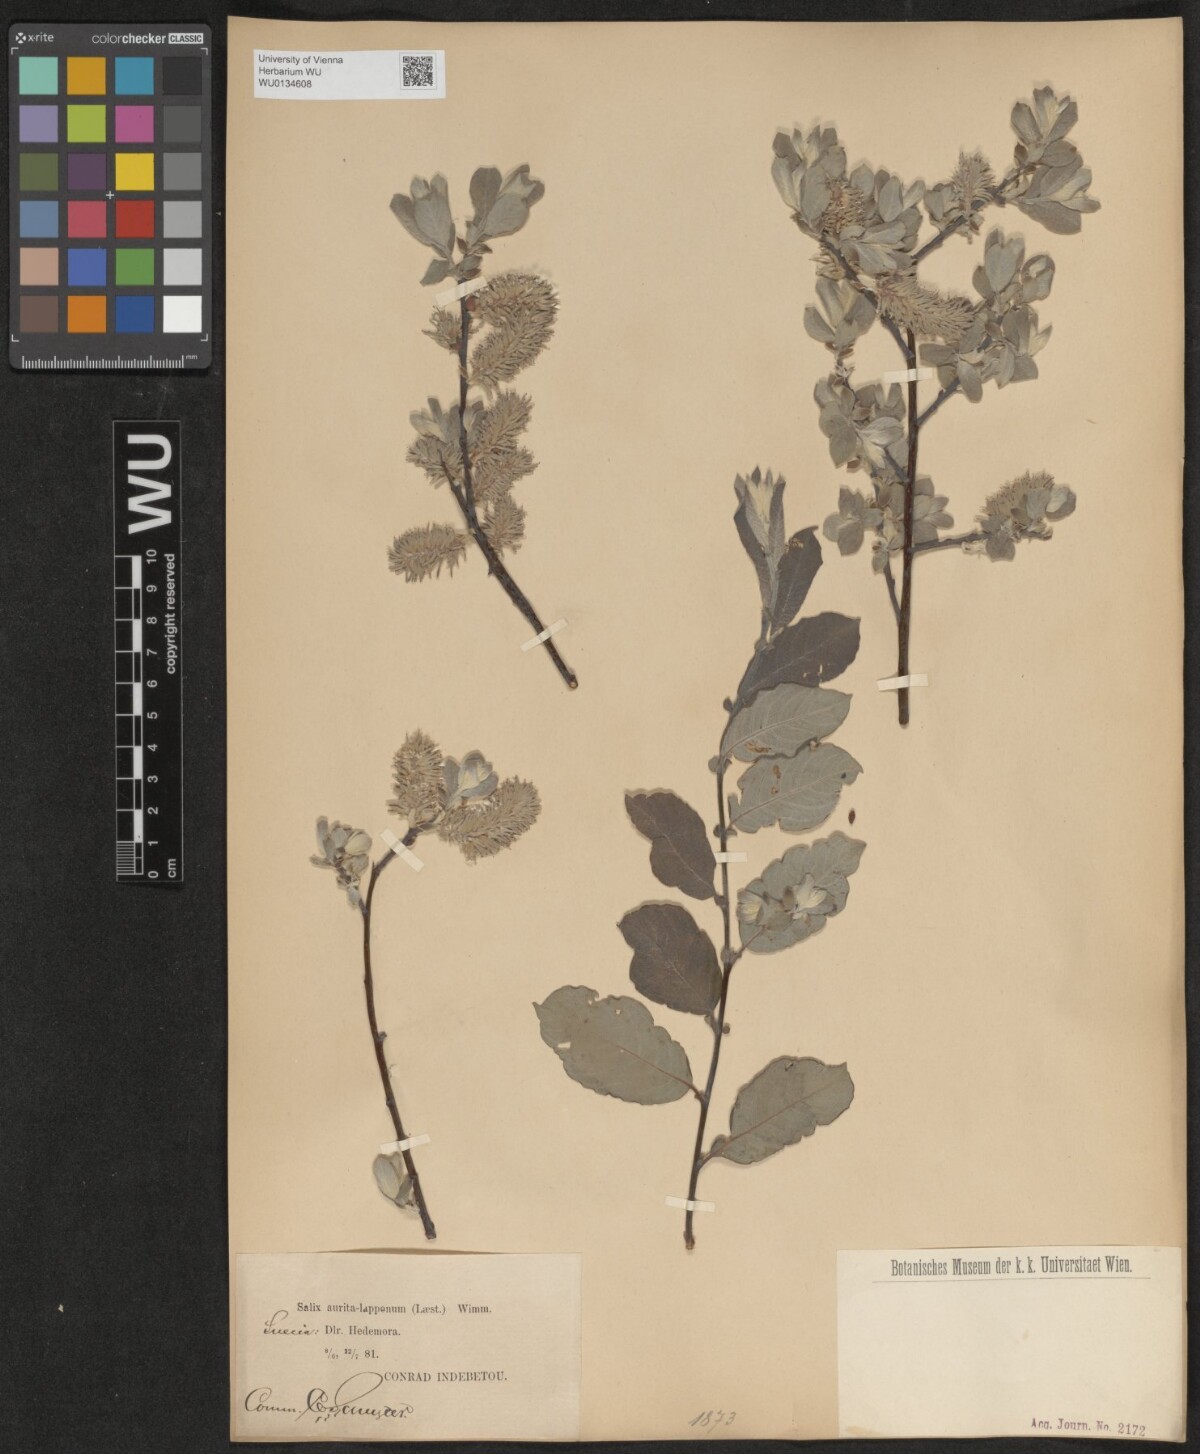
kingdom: Plantae
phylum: Tracheophyta
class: Magnoliopsida
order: Malpighiales
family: Salicaceae
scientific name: Salicaceae
